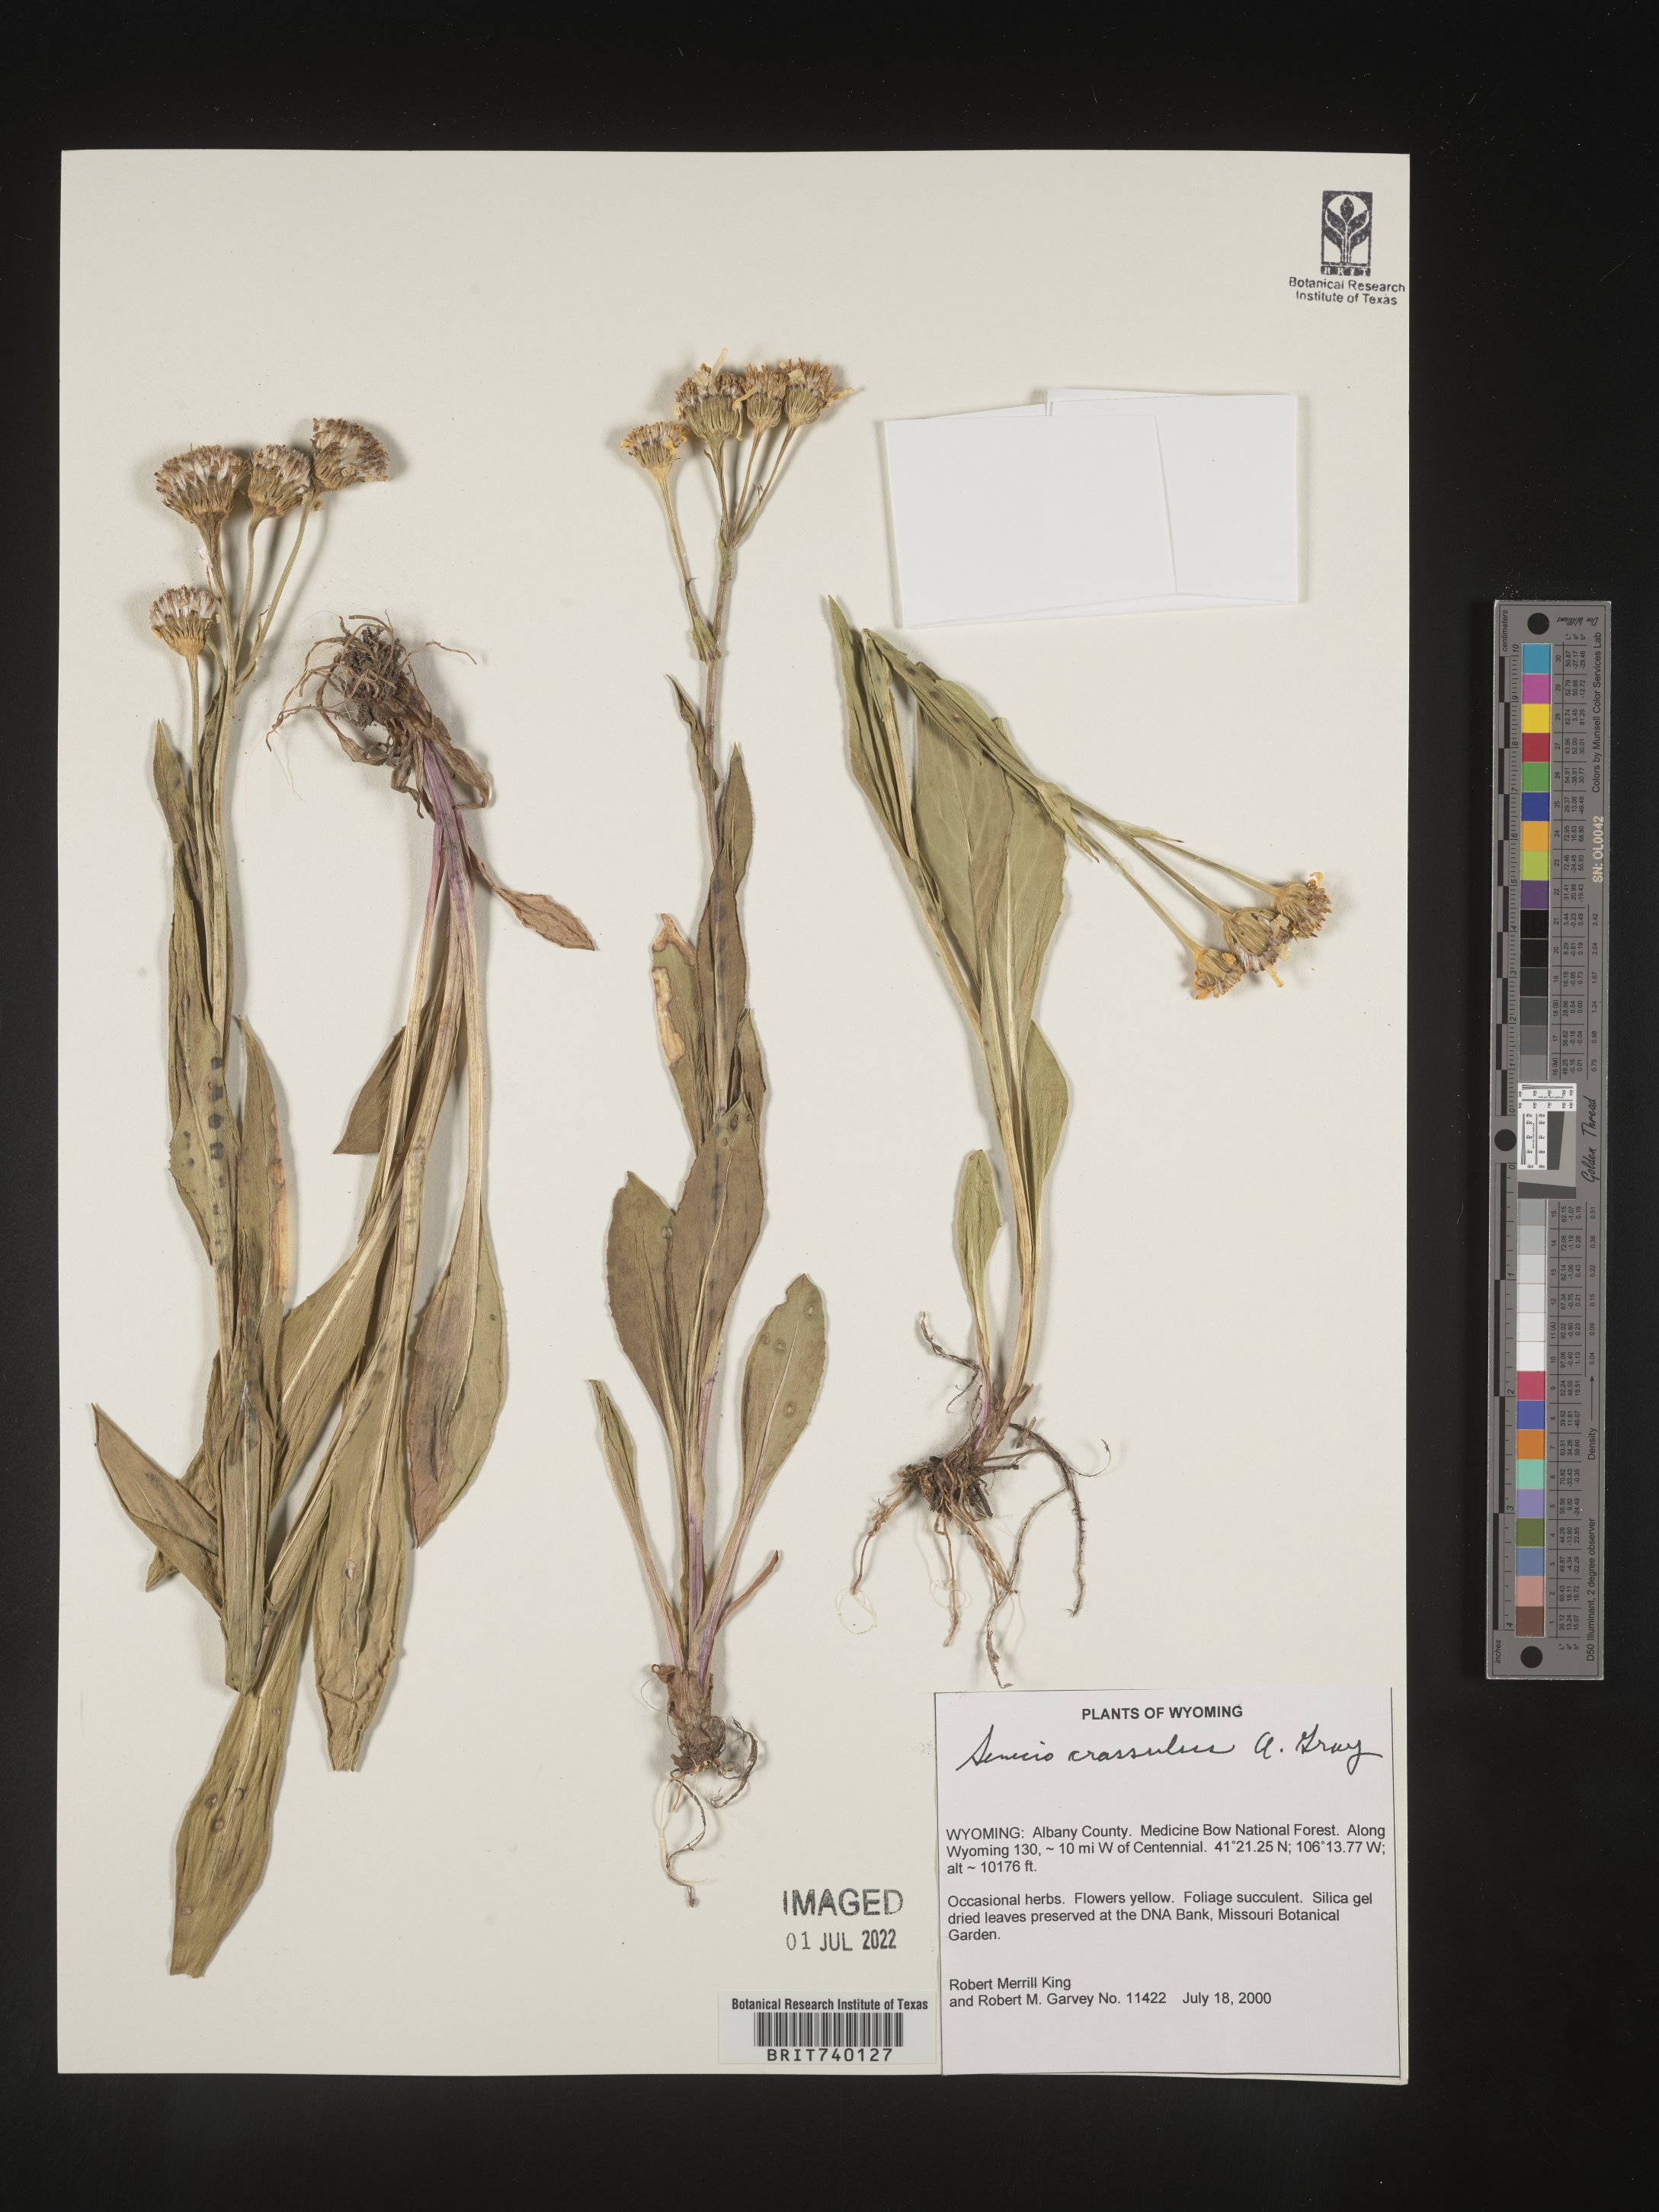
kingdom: Plantae
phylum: Tracheophyta
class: Magnoliopsida
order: Asterales
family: Asteraceae
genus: Senecio
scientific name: Senecio crassulus
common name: Mountain-meadow butterweed
